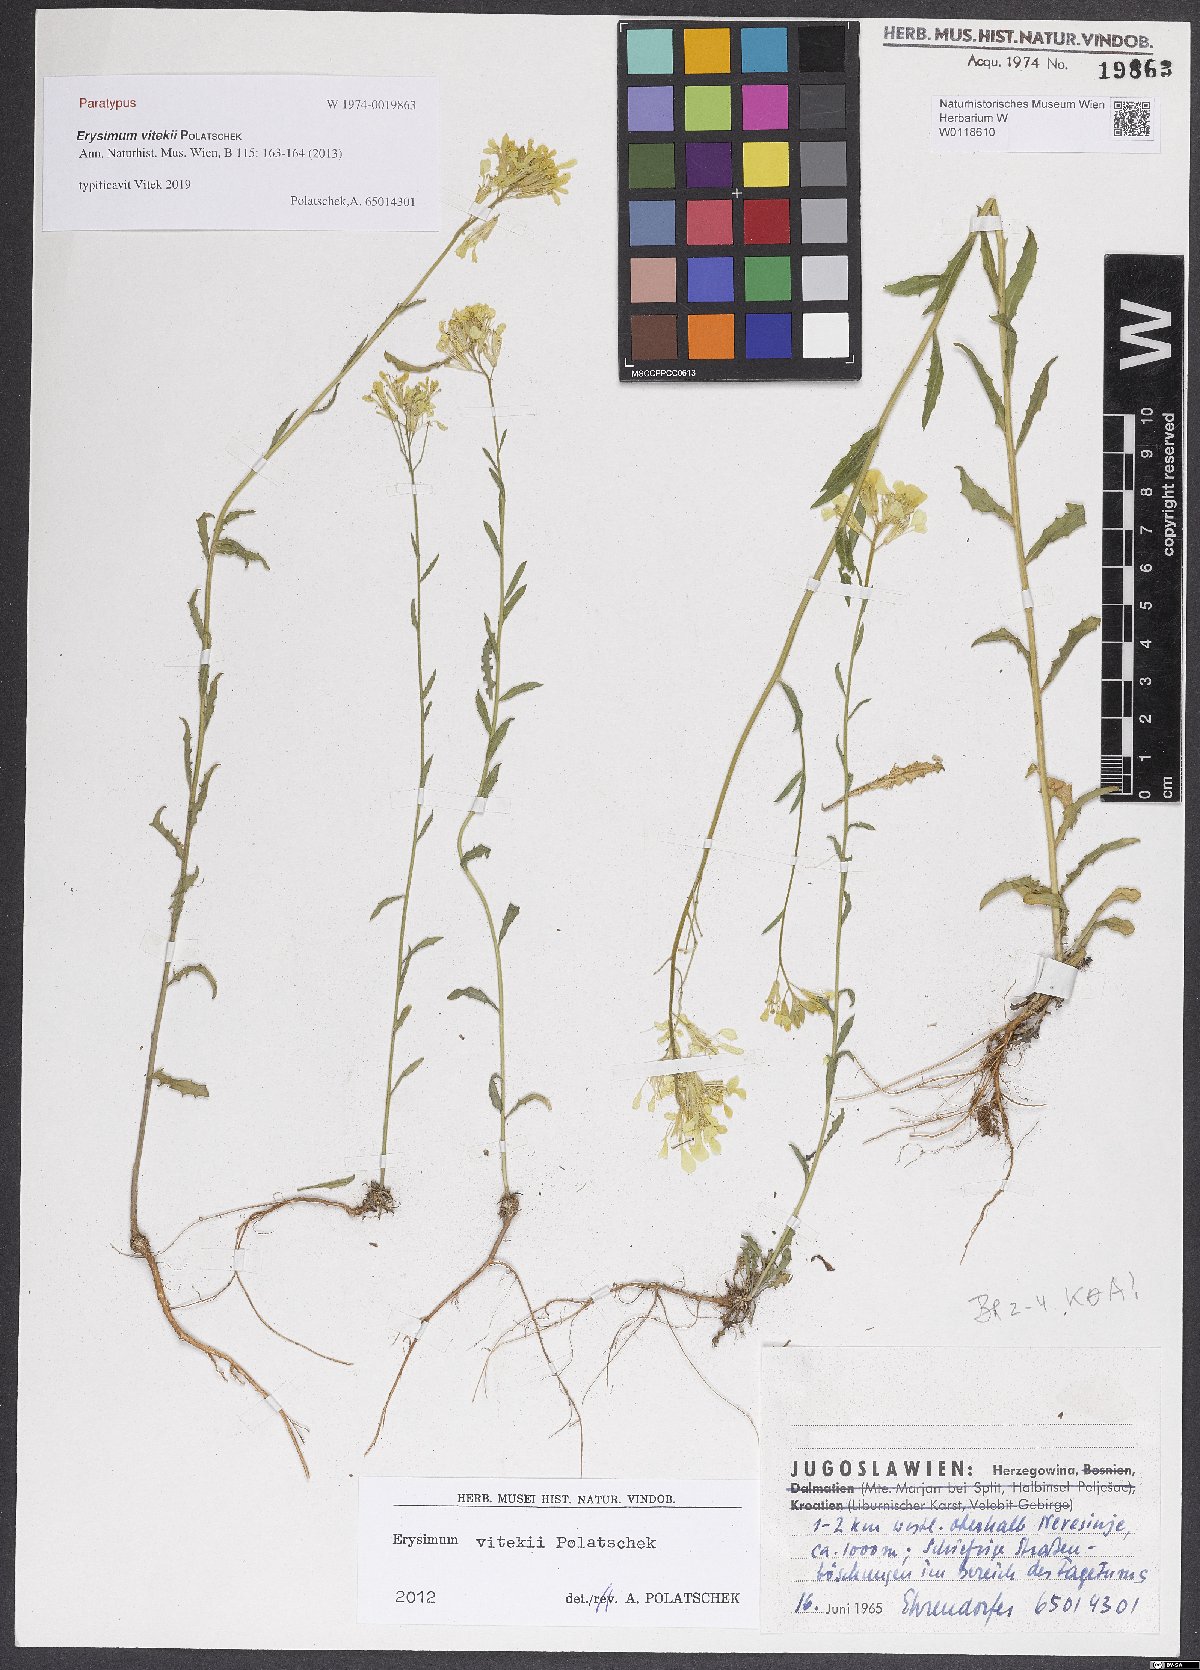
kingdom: Plantae
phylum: Tracheophyta
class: Magnoliopsida
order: Brassicales
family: Brassicaceae
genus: Erysimum
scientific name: Erysimum vitekii
